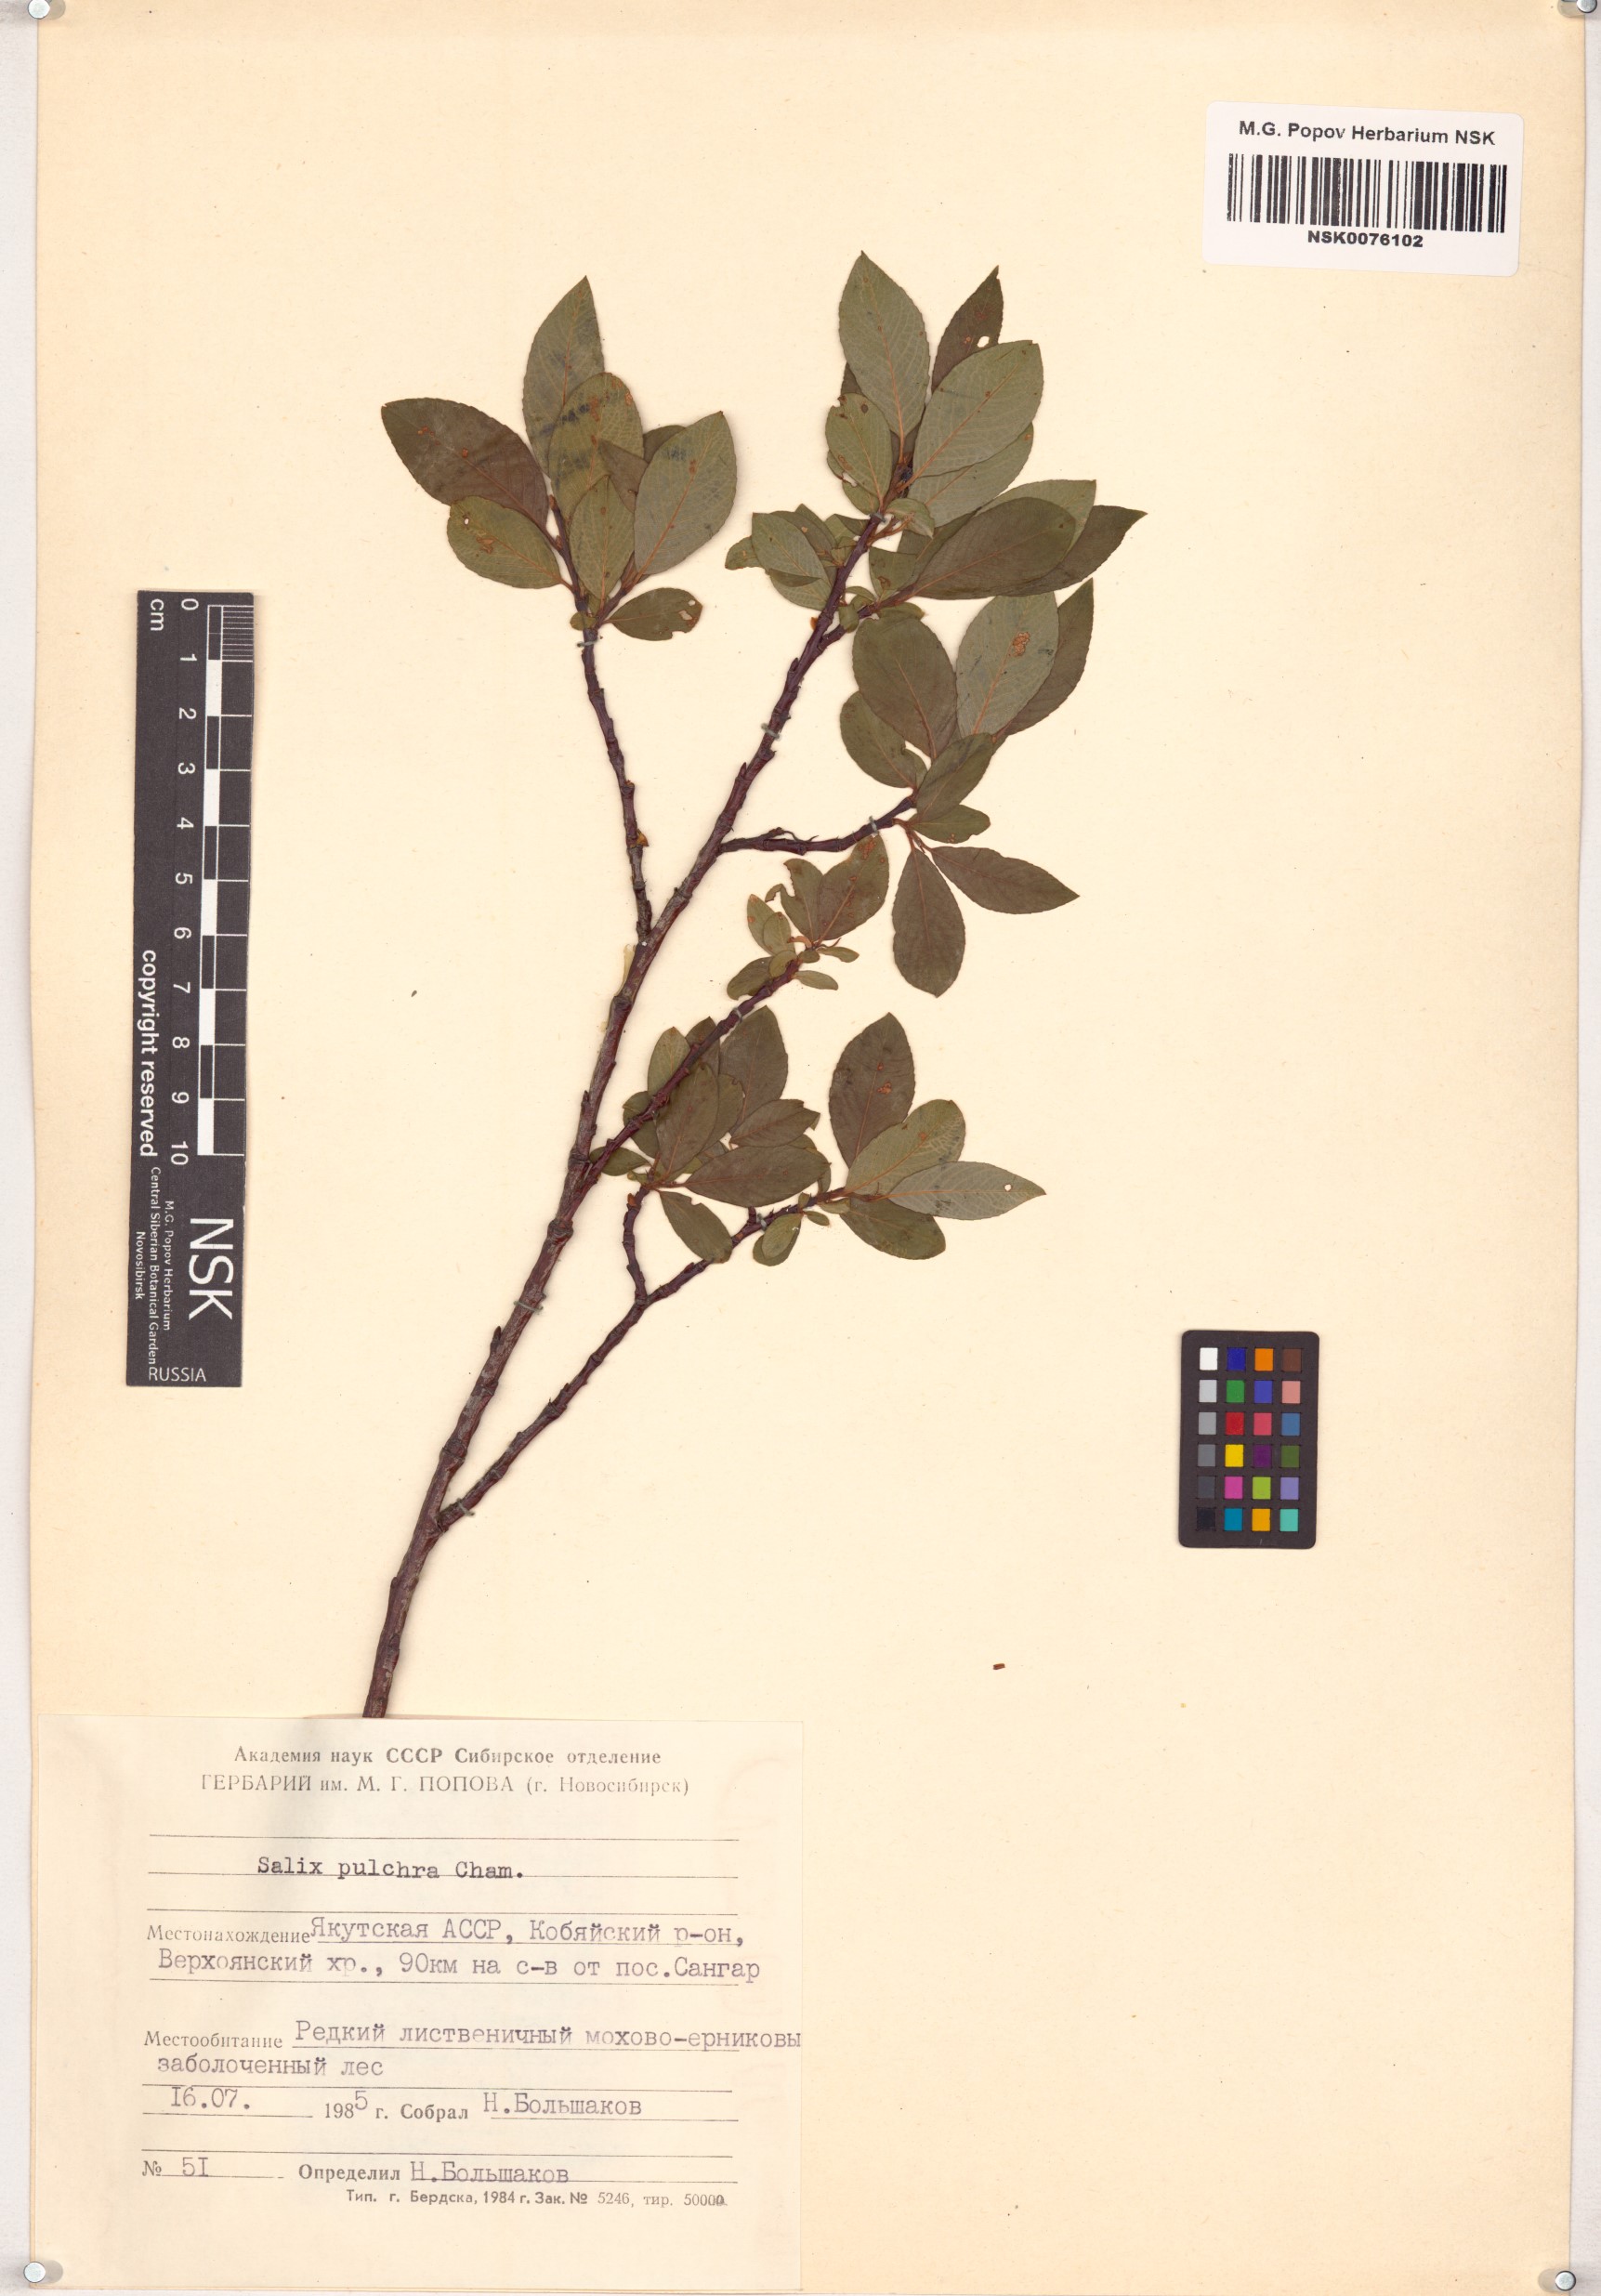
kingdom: Plantae
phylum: Tracheophyta
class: Magnoliopsida
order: Malpighiales
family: Salicaceae
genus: Salix
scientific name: Salix pulchra
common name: Diamond-leaved willow
